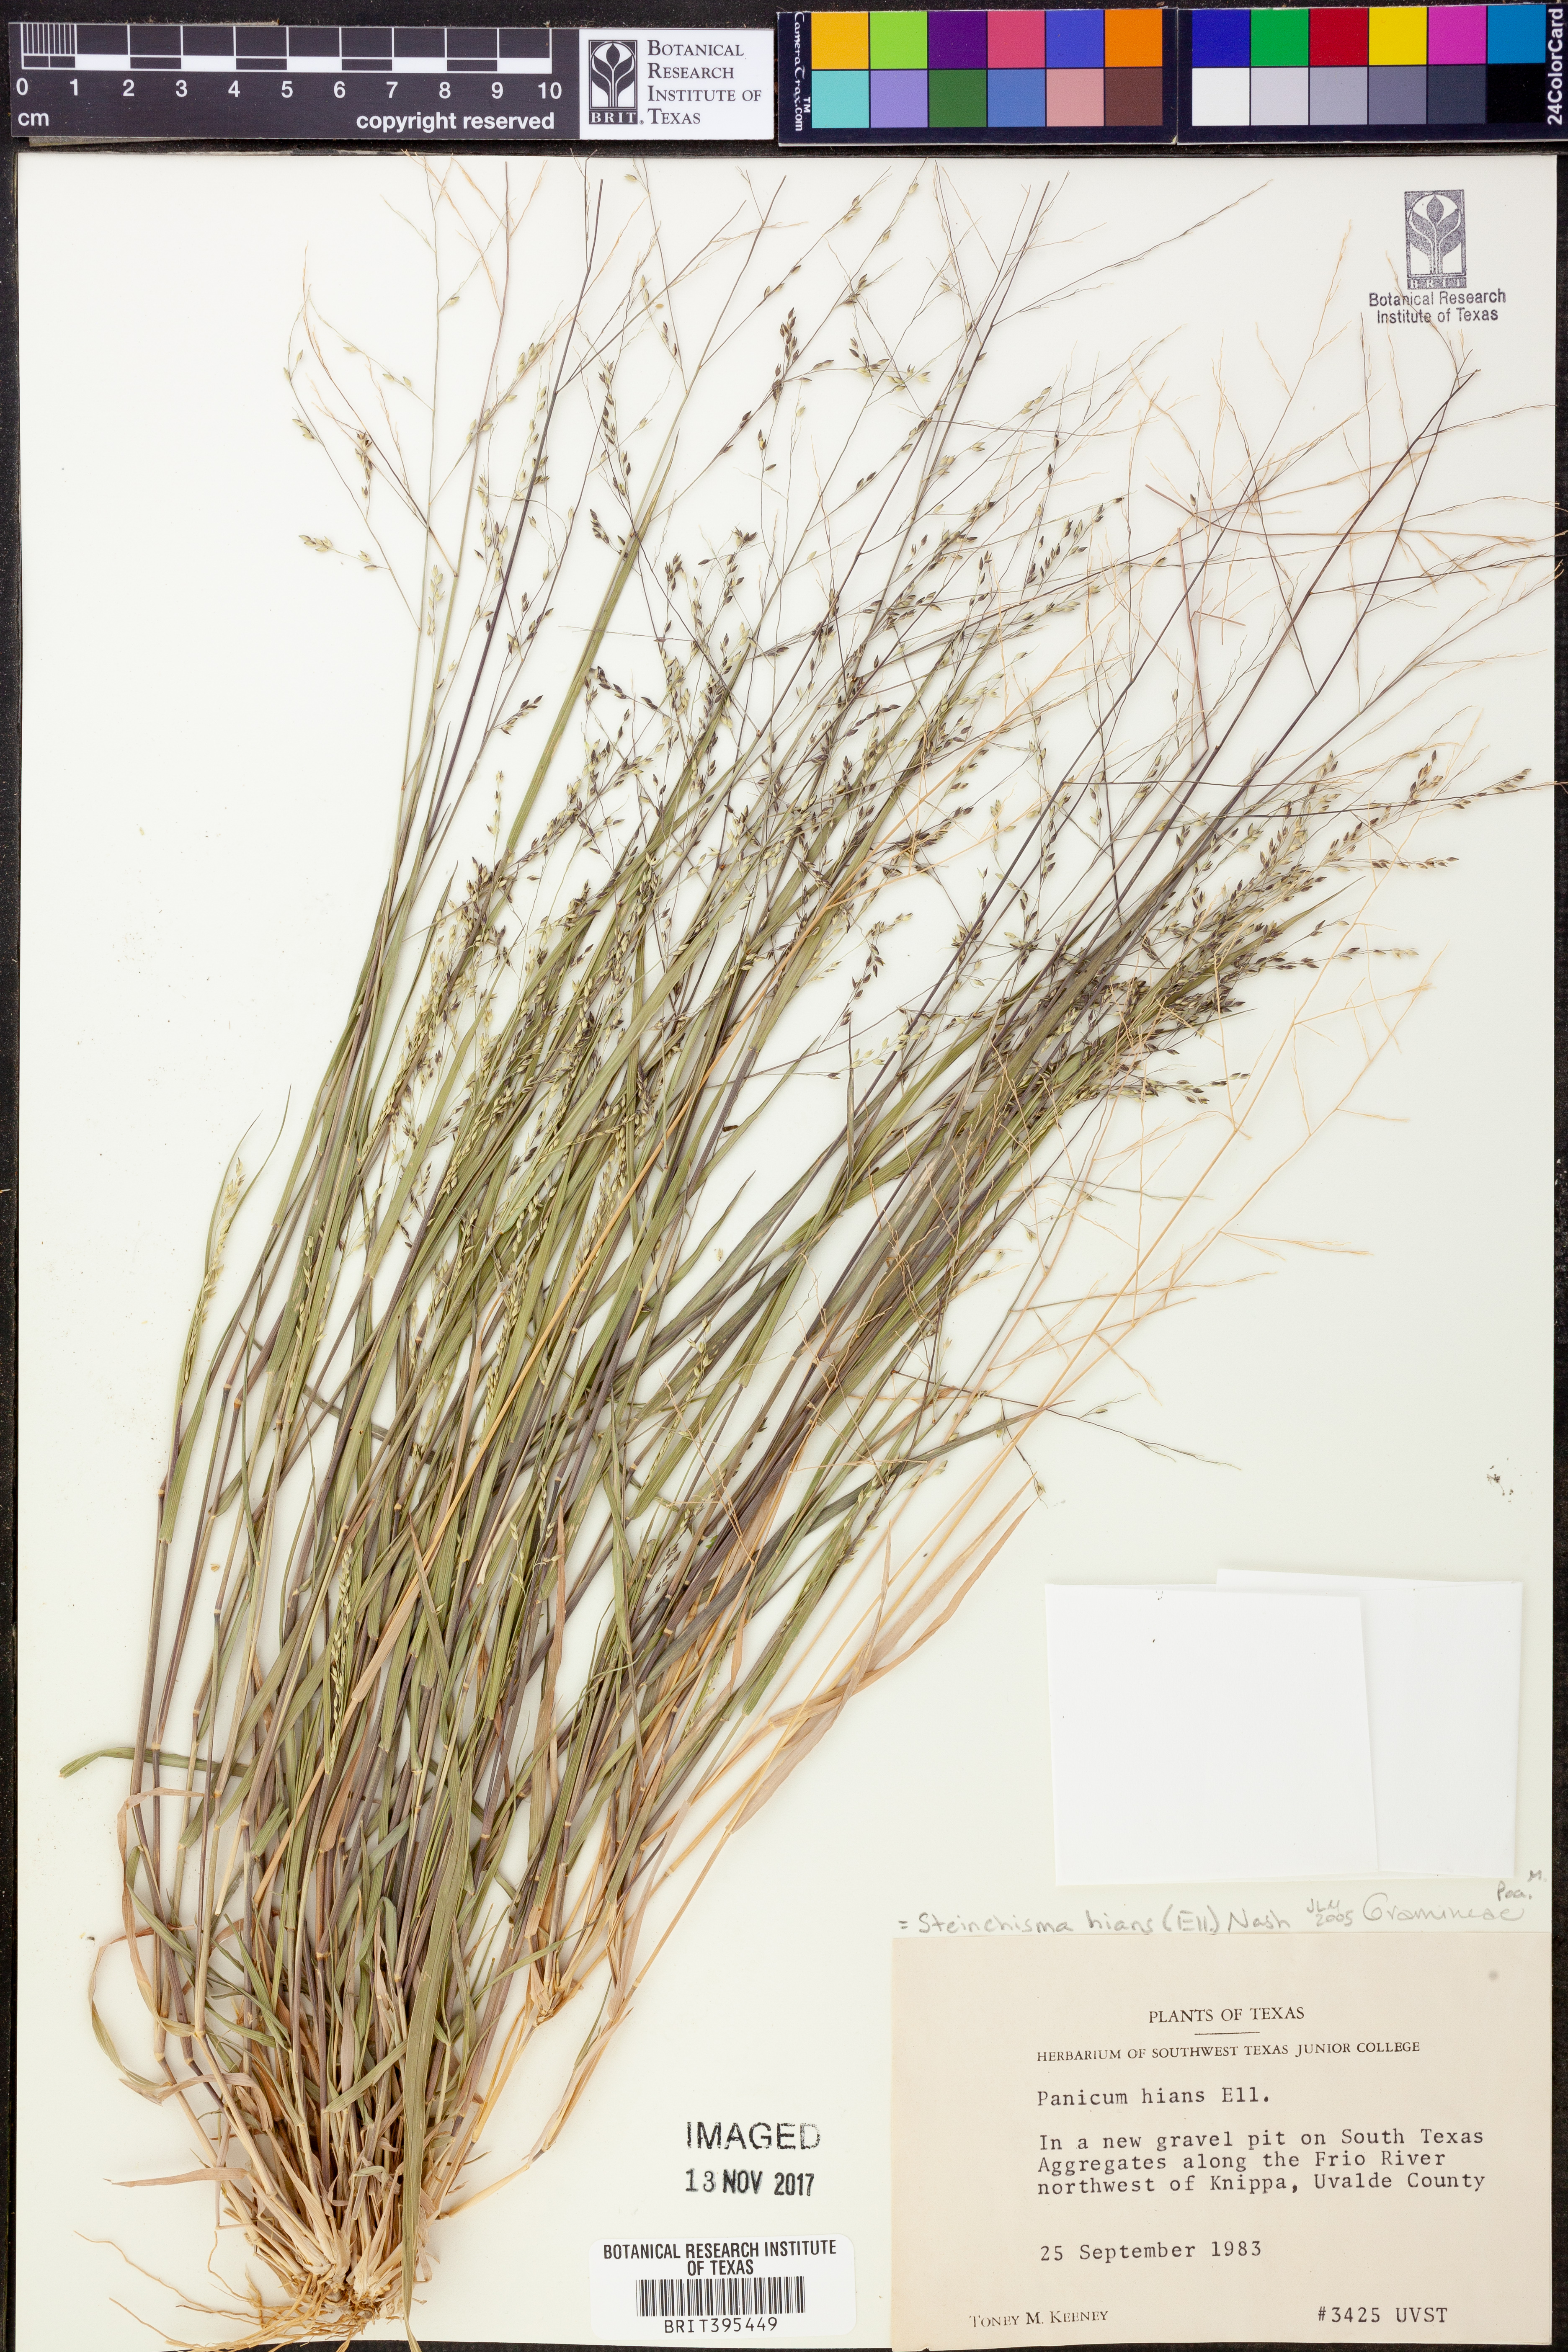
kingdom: Plantae
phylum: Tracheophyta
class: Liliopsida
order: Poales
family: Poaceae
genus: Steinchisma
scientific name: Steinchisma hians
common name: Gaping panic grass
